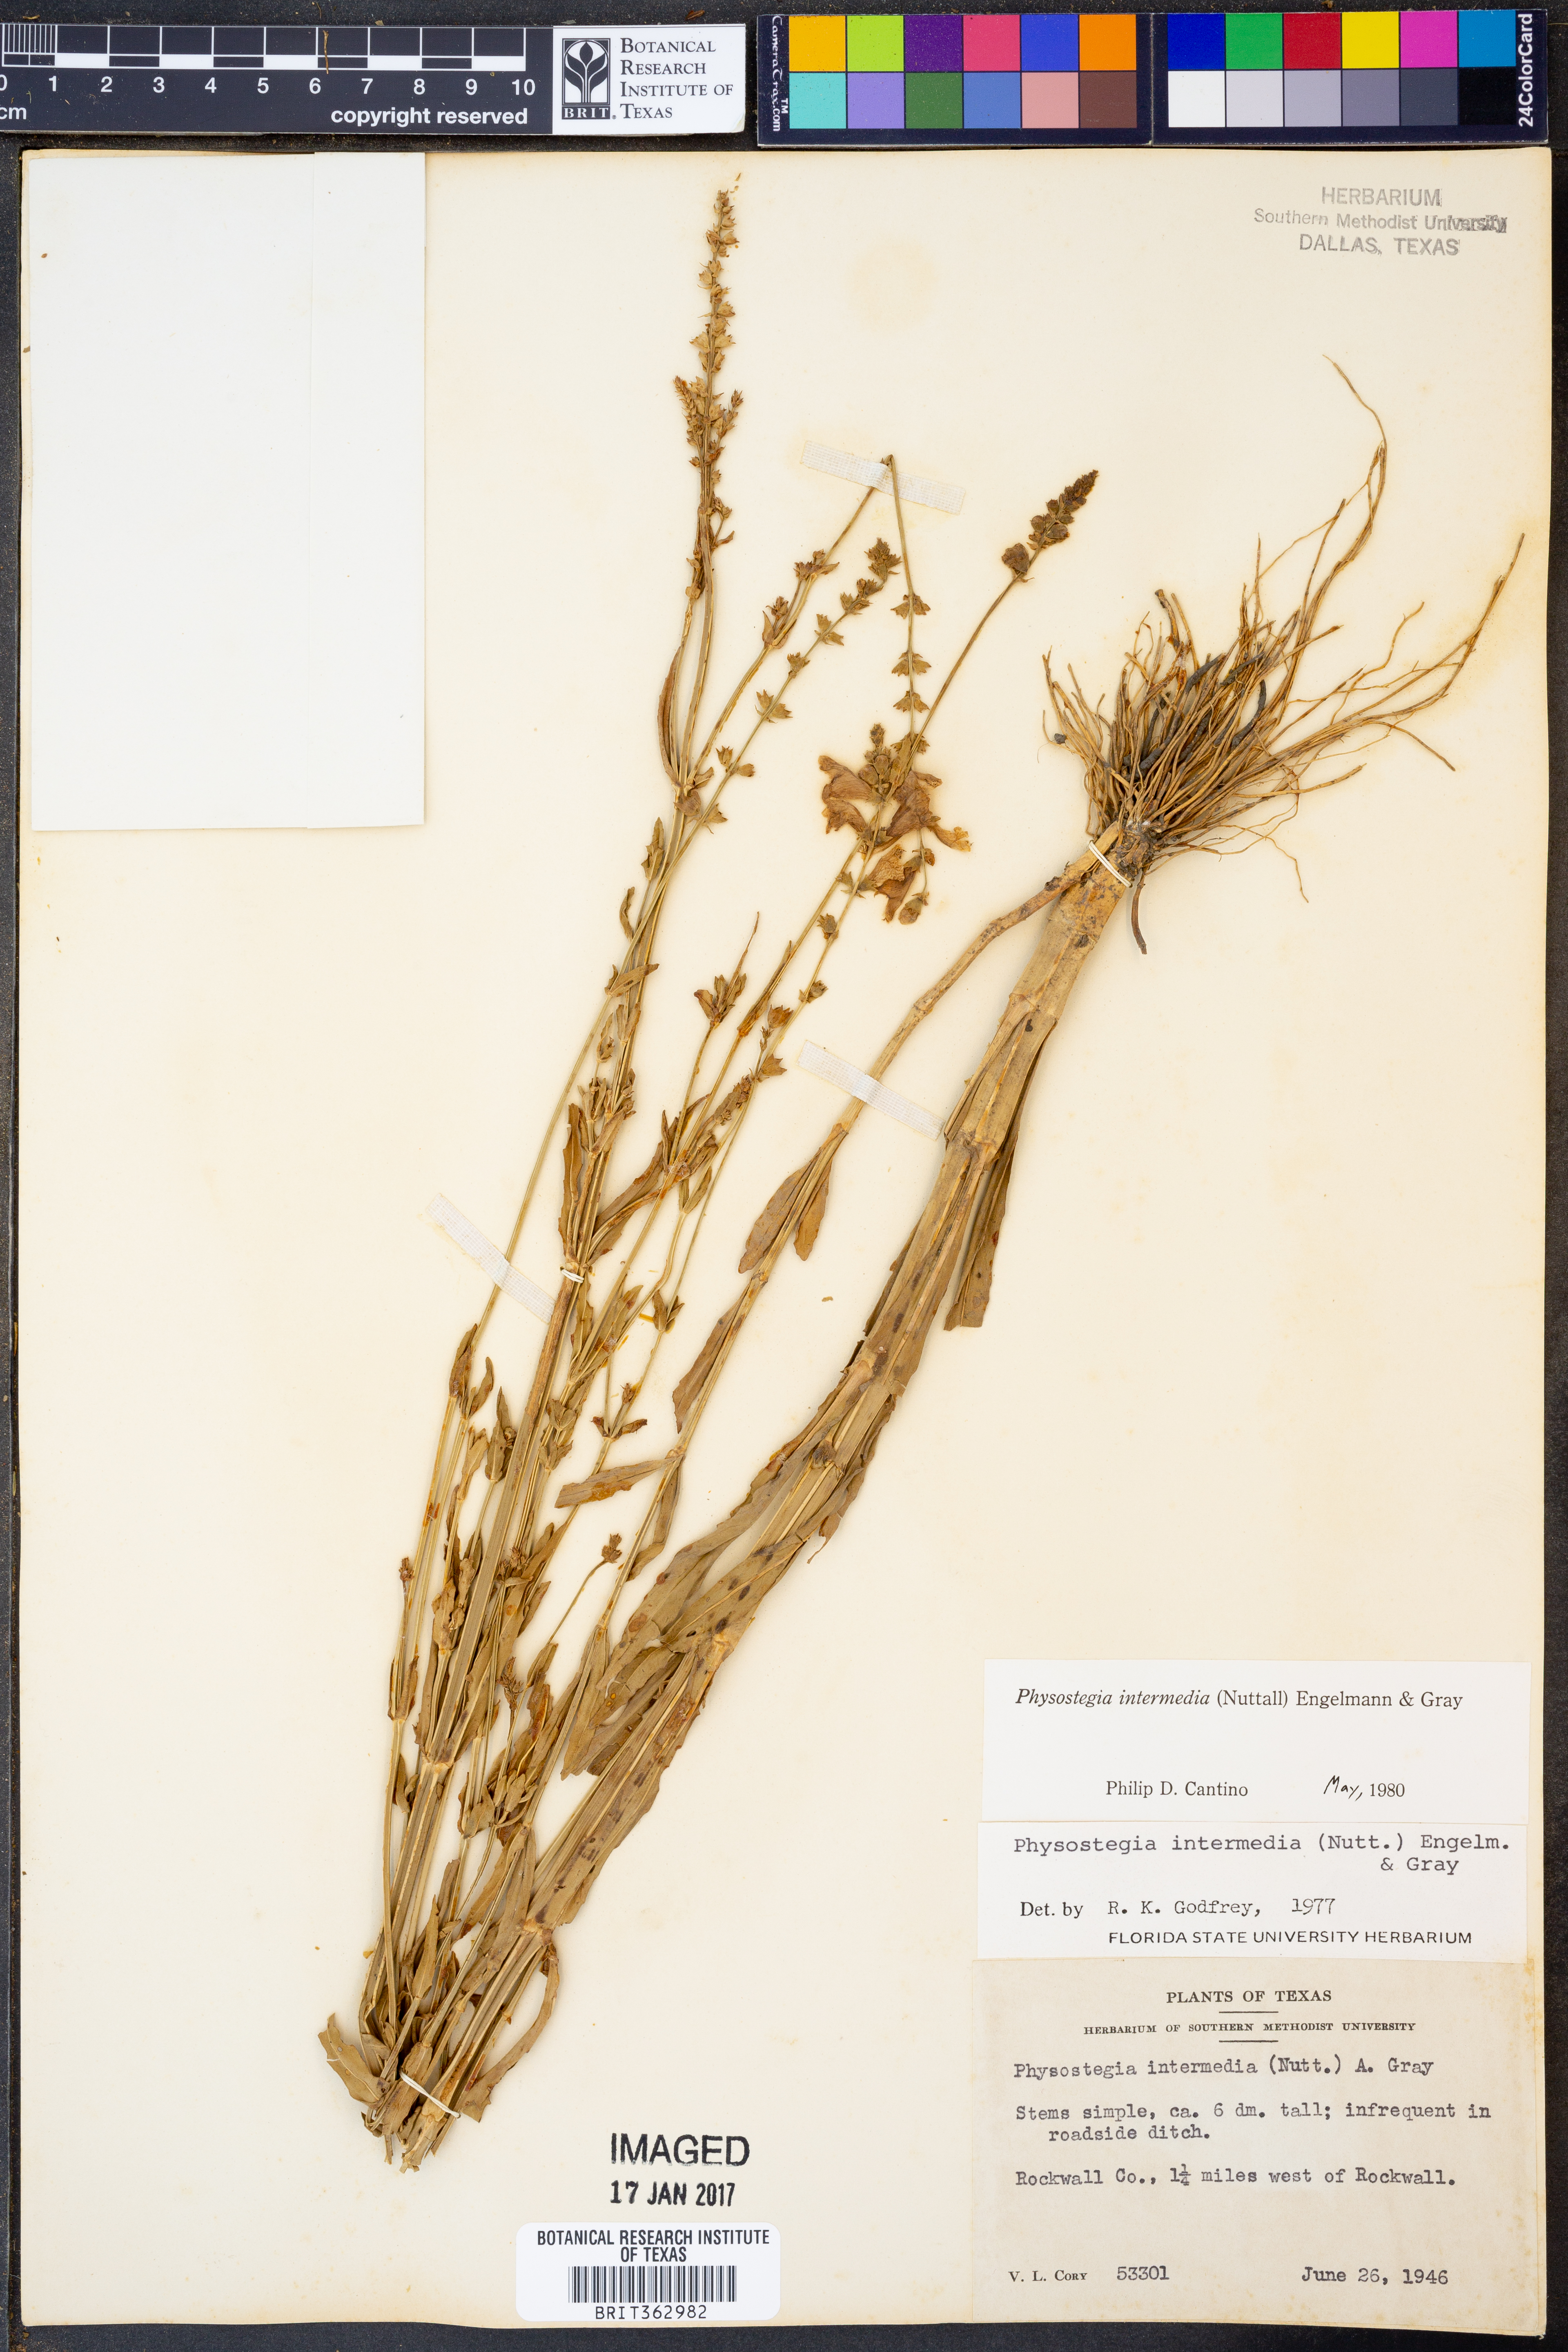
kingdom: Plantae
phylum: Tracheophyta
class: Magnoliopsida
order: Lamiales
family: Lamiaceae
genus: Physostegia
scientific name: Physostegia intermedia
